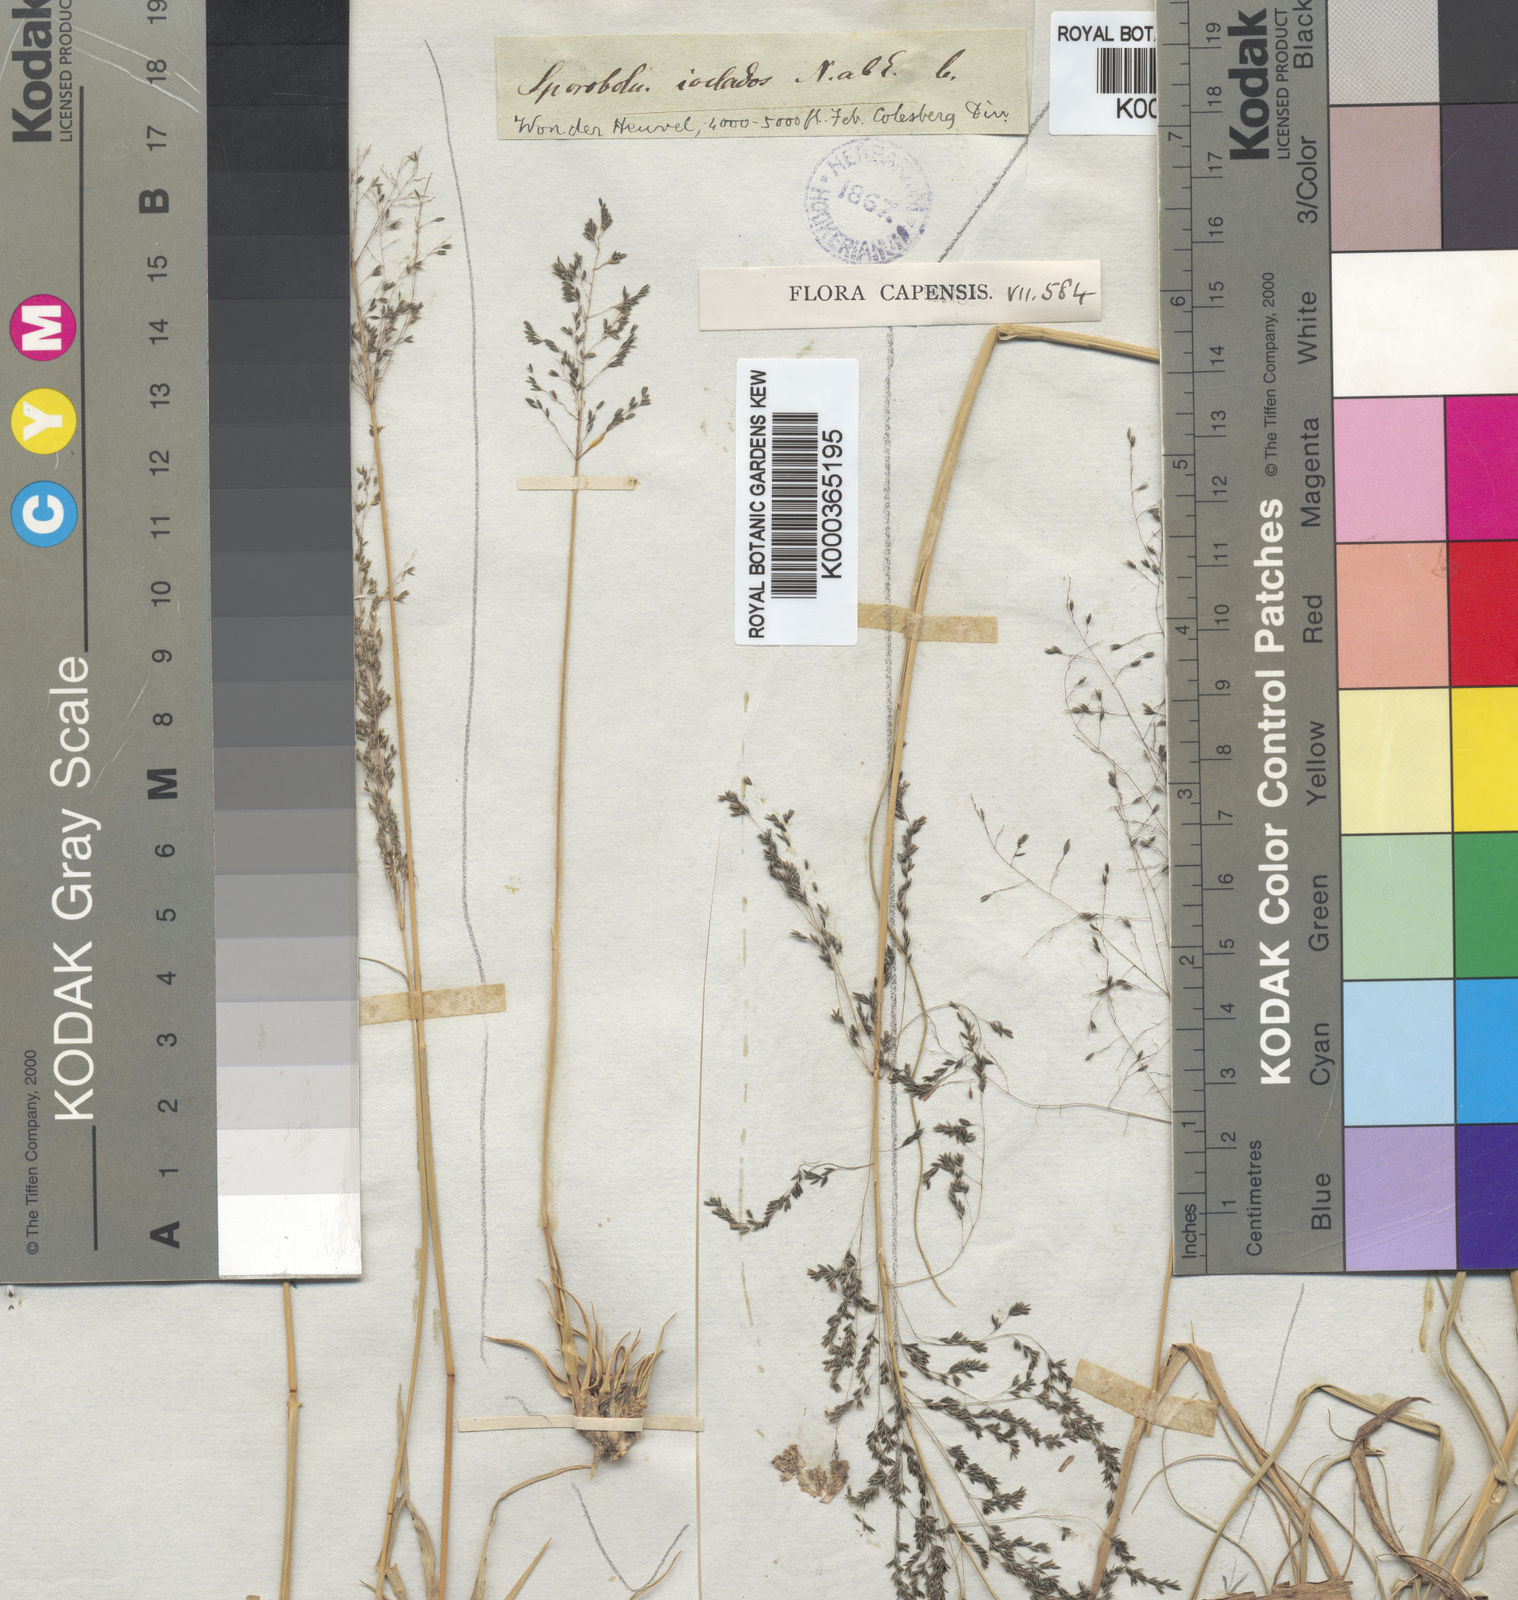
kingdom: Plantae
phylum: Tracheophyta
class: Liliopsida
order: Poales
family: Poaceae
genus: Sporobolus
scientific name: Sporobolus ioclados
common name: Pan dropseed
